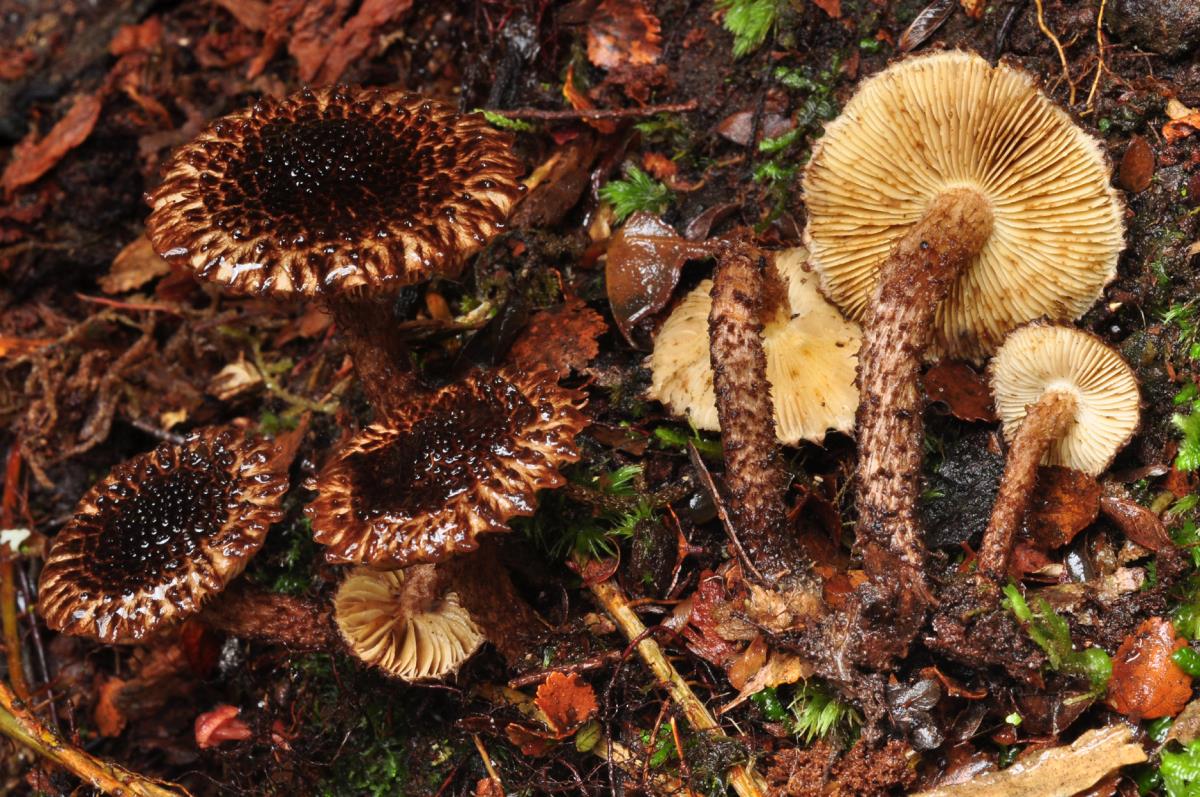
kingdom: Fungi
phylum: Basidiomycota
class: Agaricomycetes
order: Agaricales
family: Inocybaceae
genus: Inocybe
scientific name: Inocybe strobilomyces
